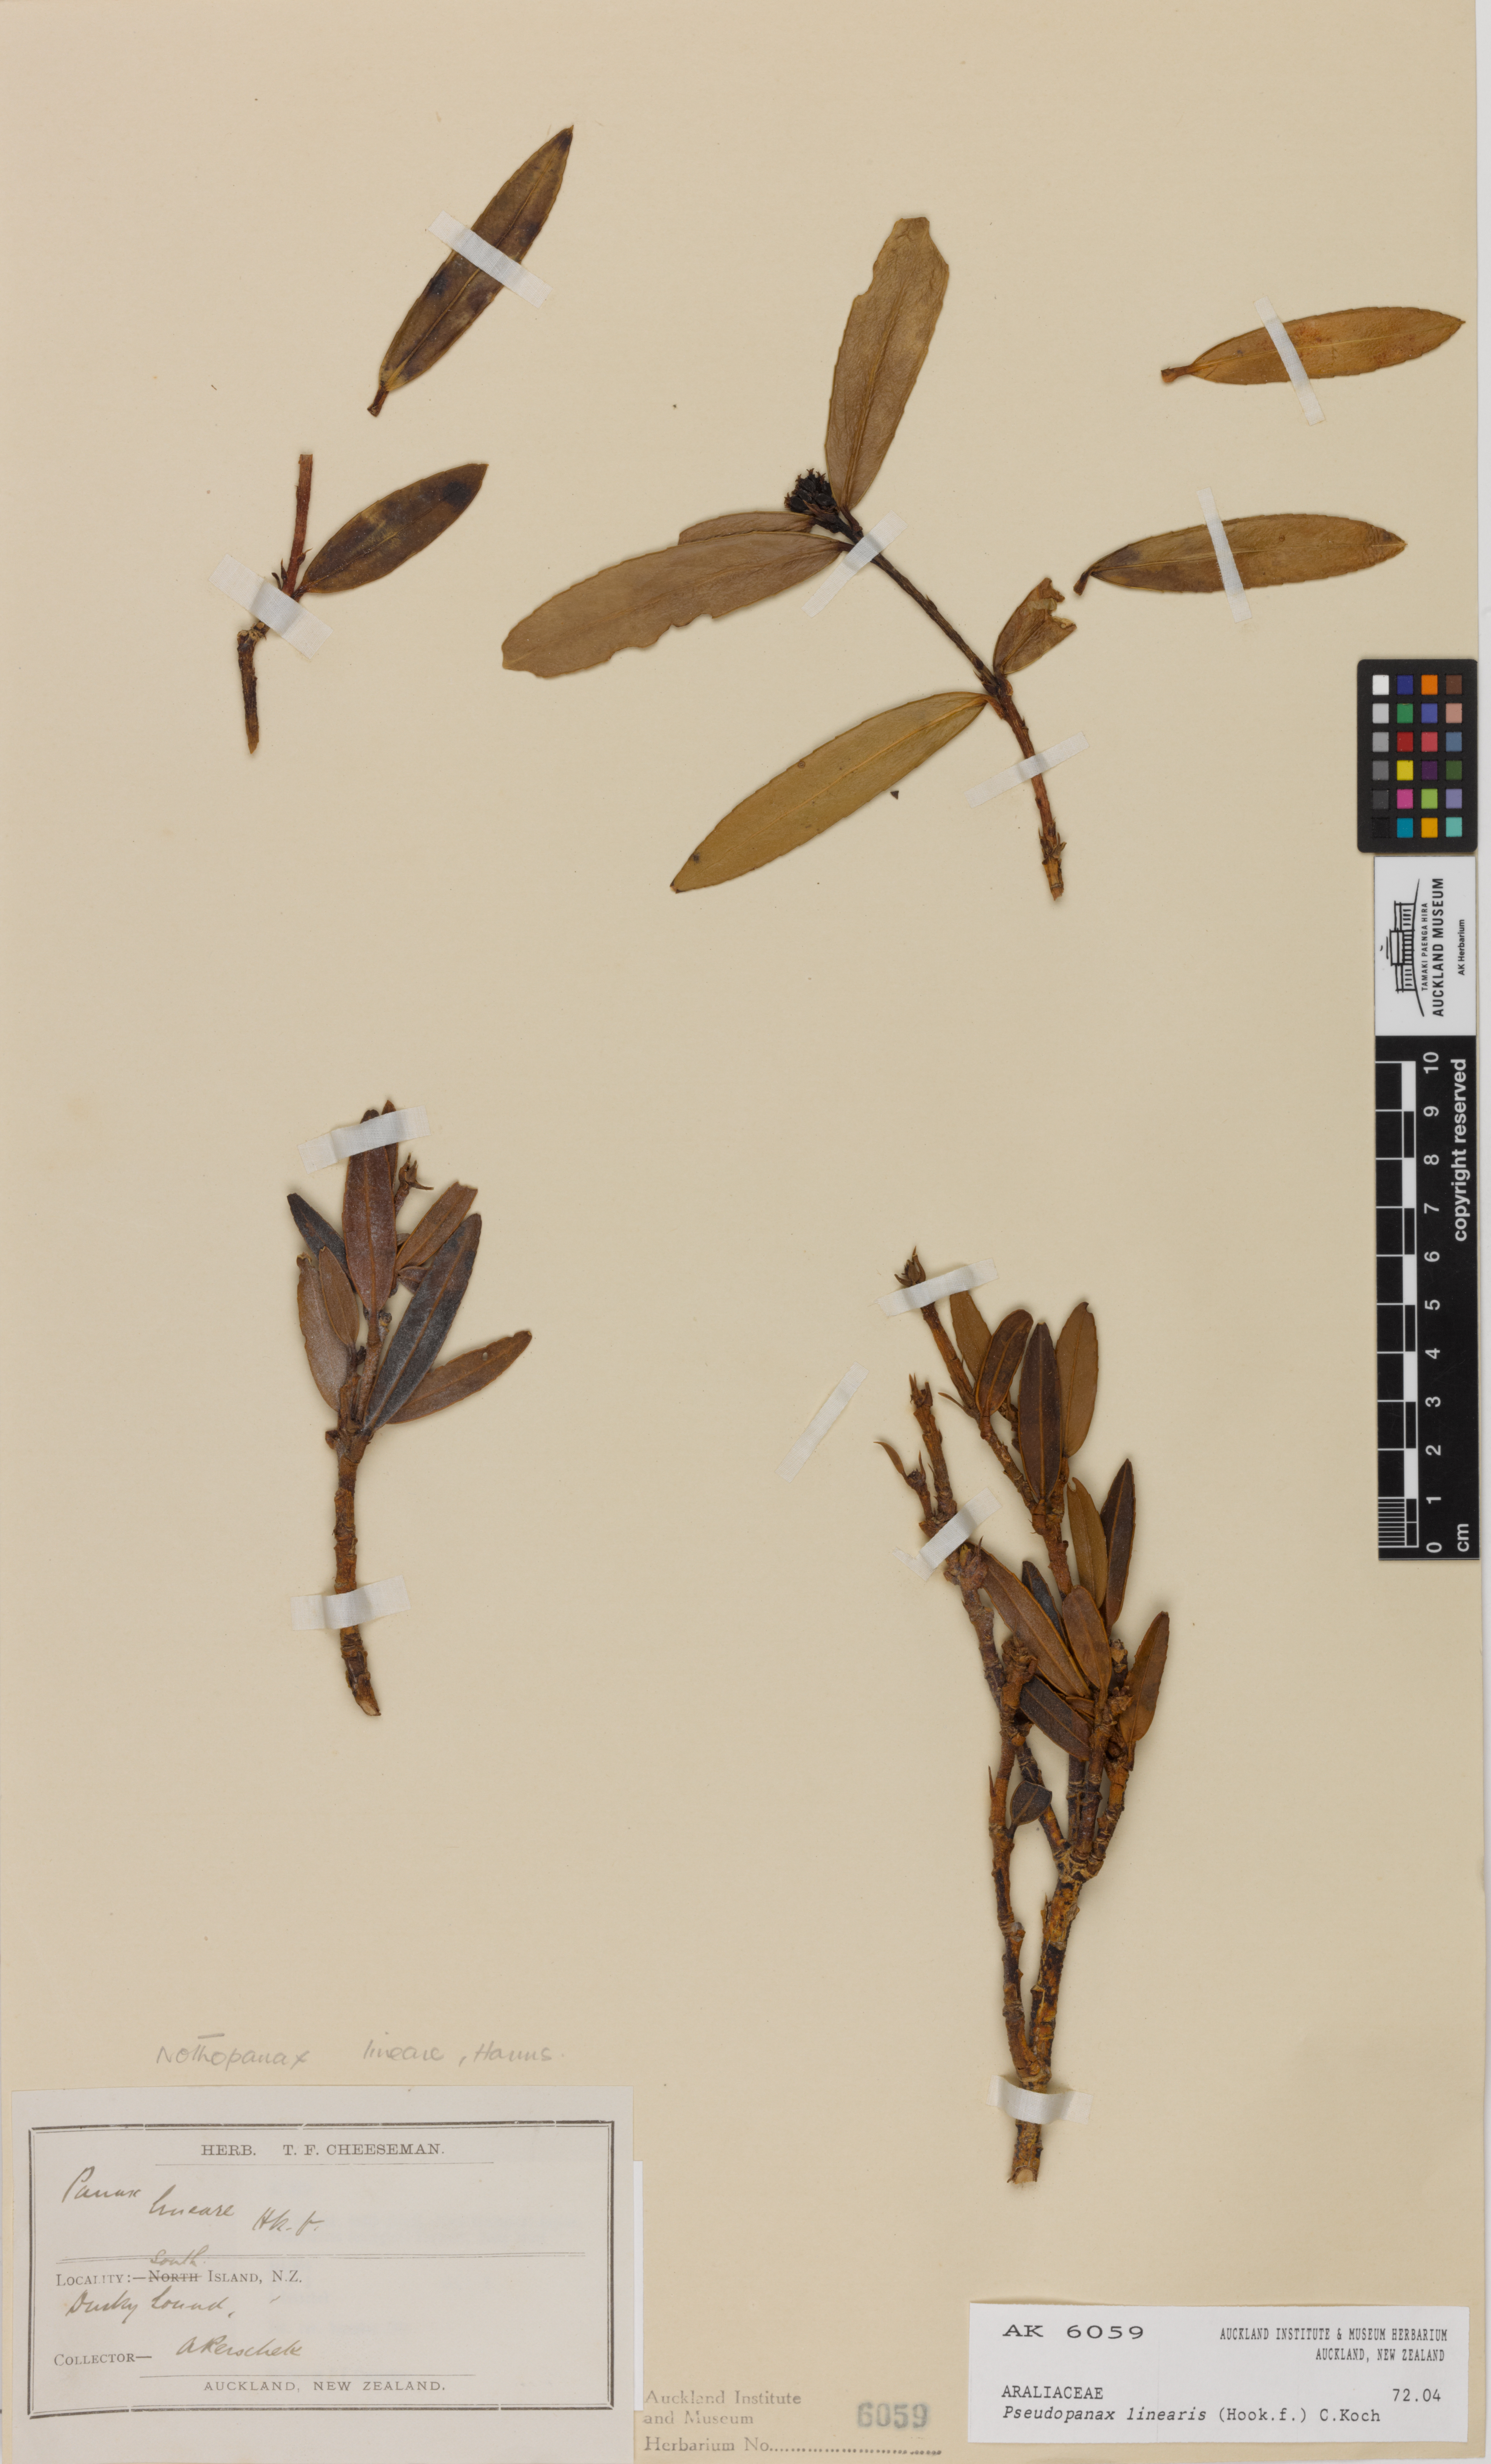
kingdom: Plantae
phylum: Tracheophyta
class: Magnoliopsida
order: Apiales
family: Araliaceae
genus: Pseudopanax
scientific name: Pseudopanax linearis
